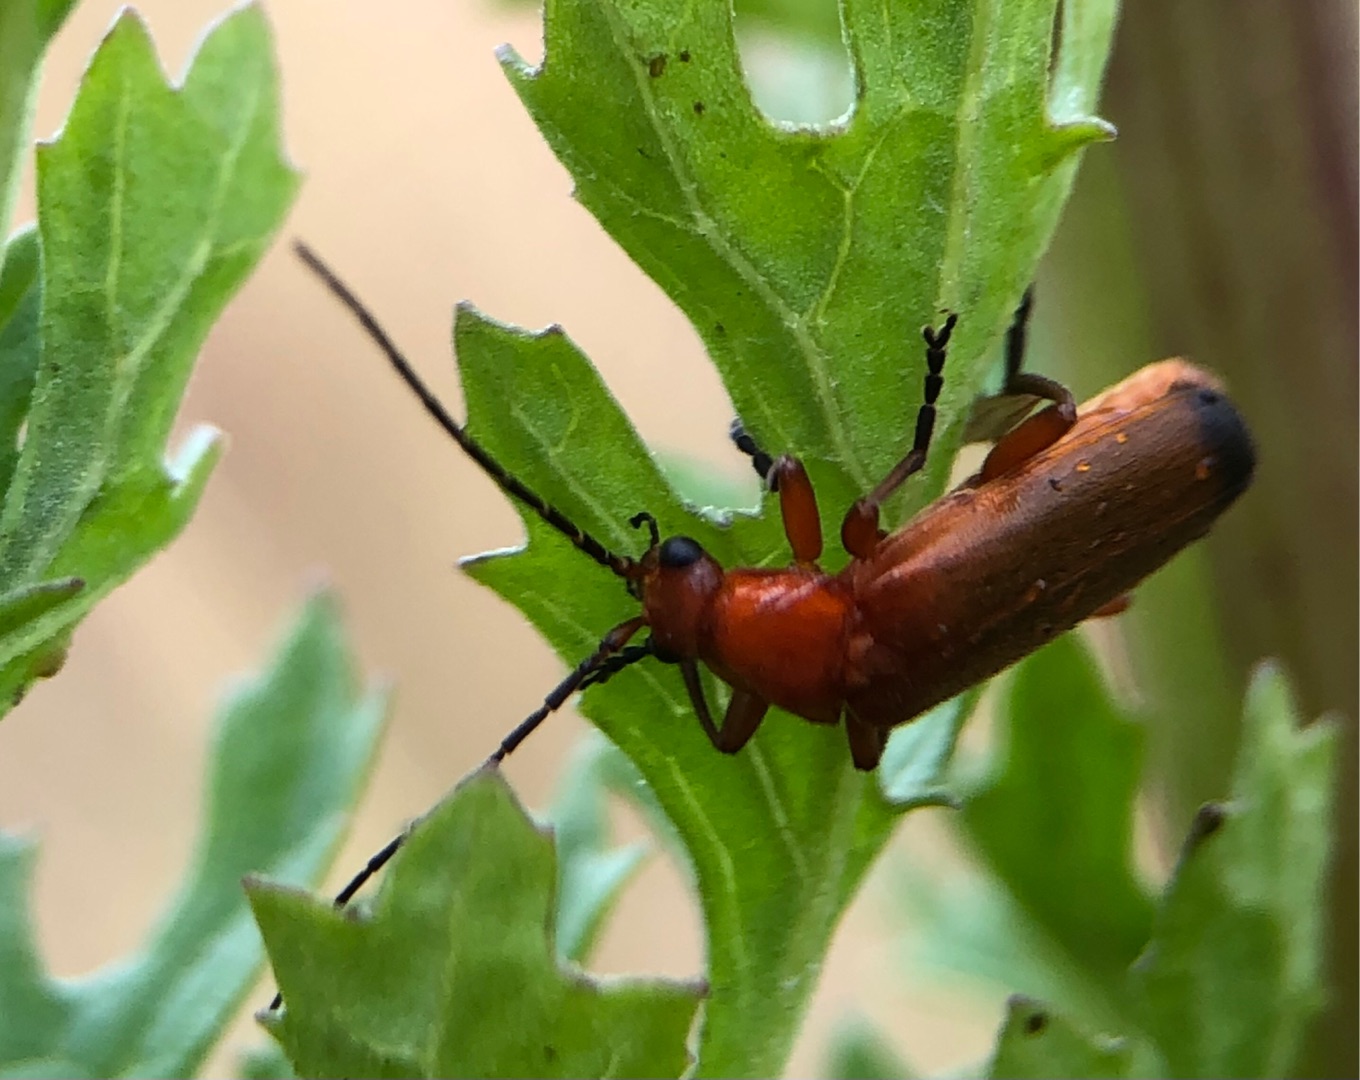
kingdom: Animalia
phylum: Arthropoda
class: Insecta
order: Coleoptera
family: Cantharidae
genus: Rhagonycha
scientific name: Rhagonycha fulva
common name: Præstebille
